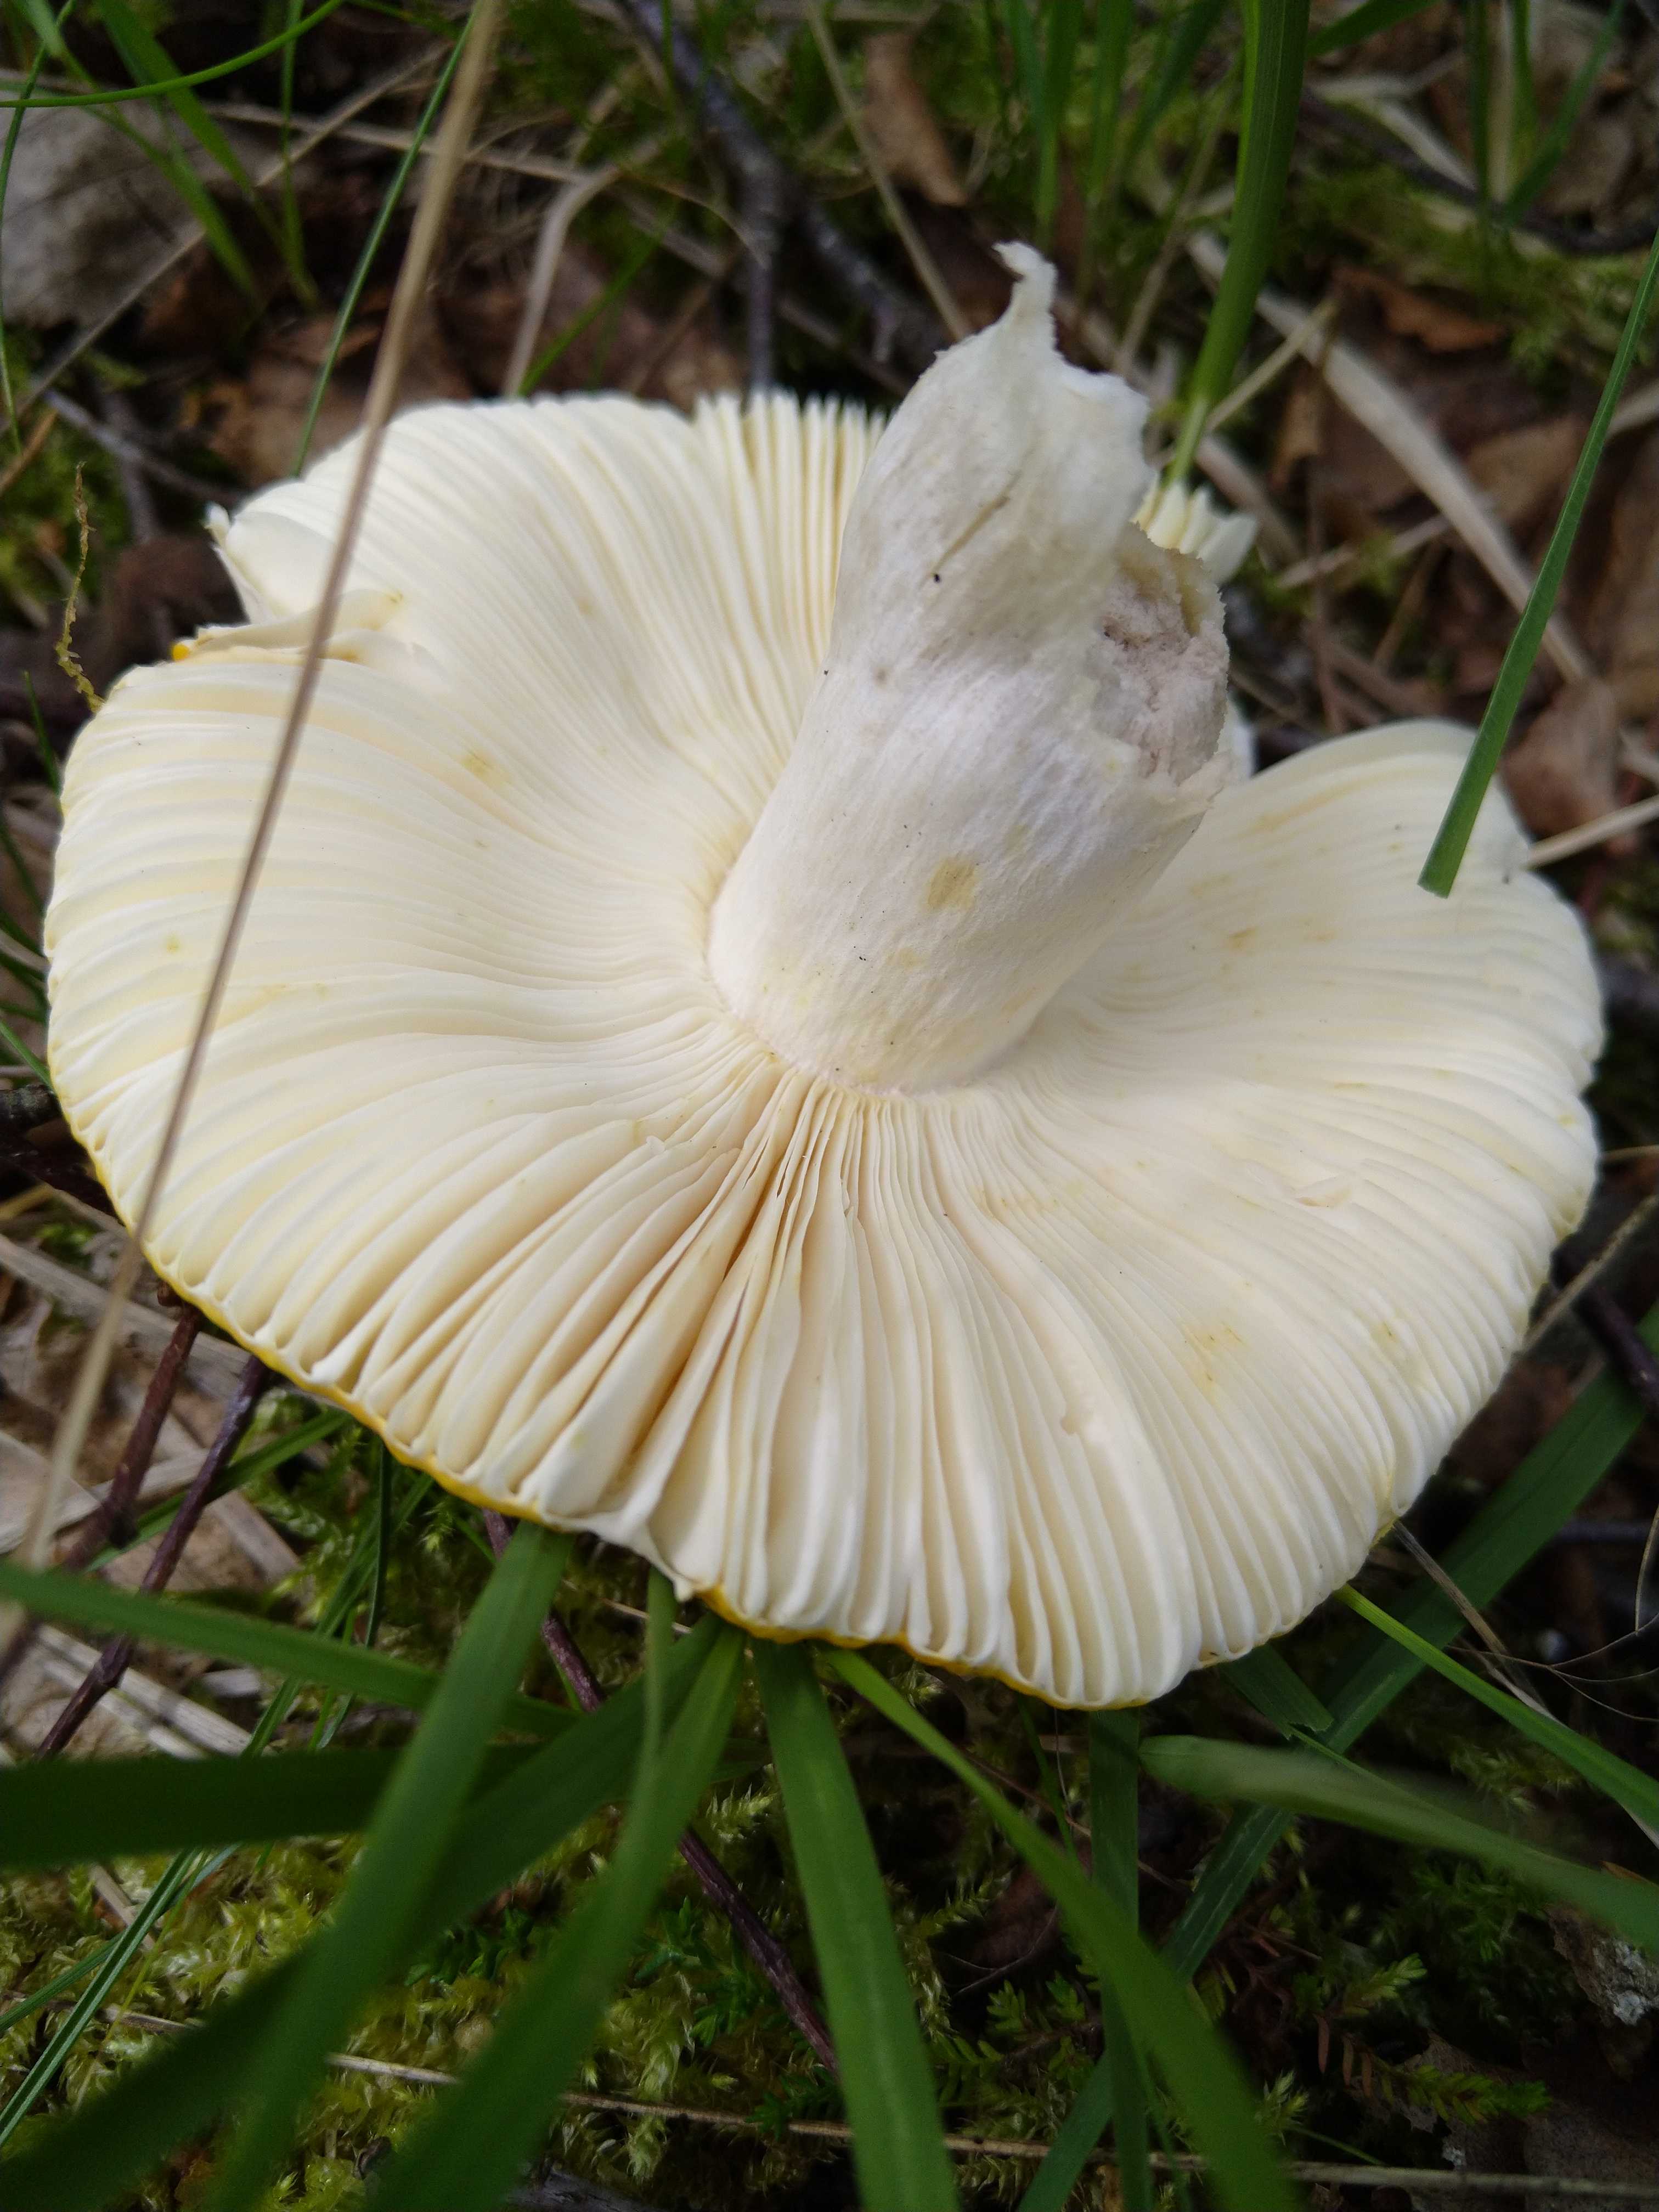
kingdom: Fungi
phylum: Basidiomycota
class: Agaricomycetes
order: Russulales
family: Russulaceae
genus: Russula
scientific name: Russula claroflava
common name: birke-skørhat
